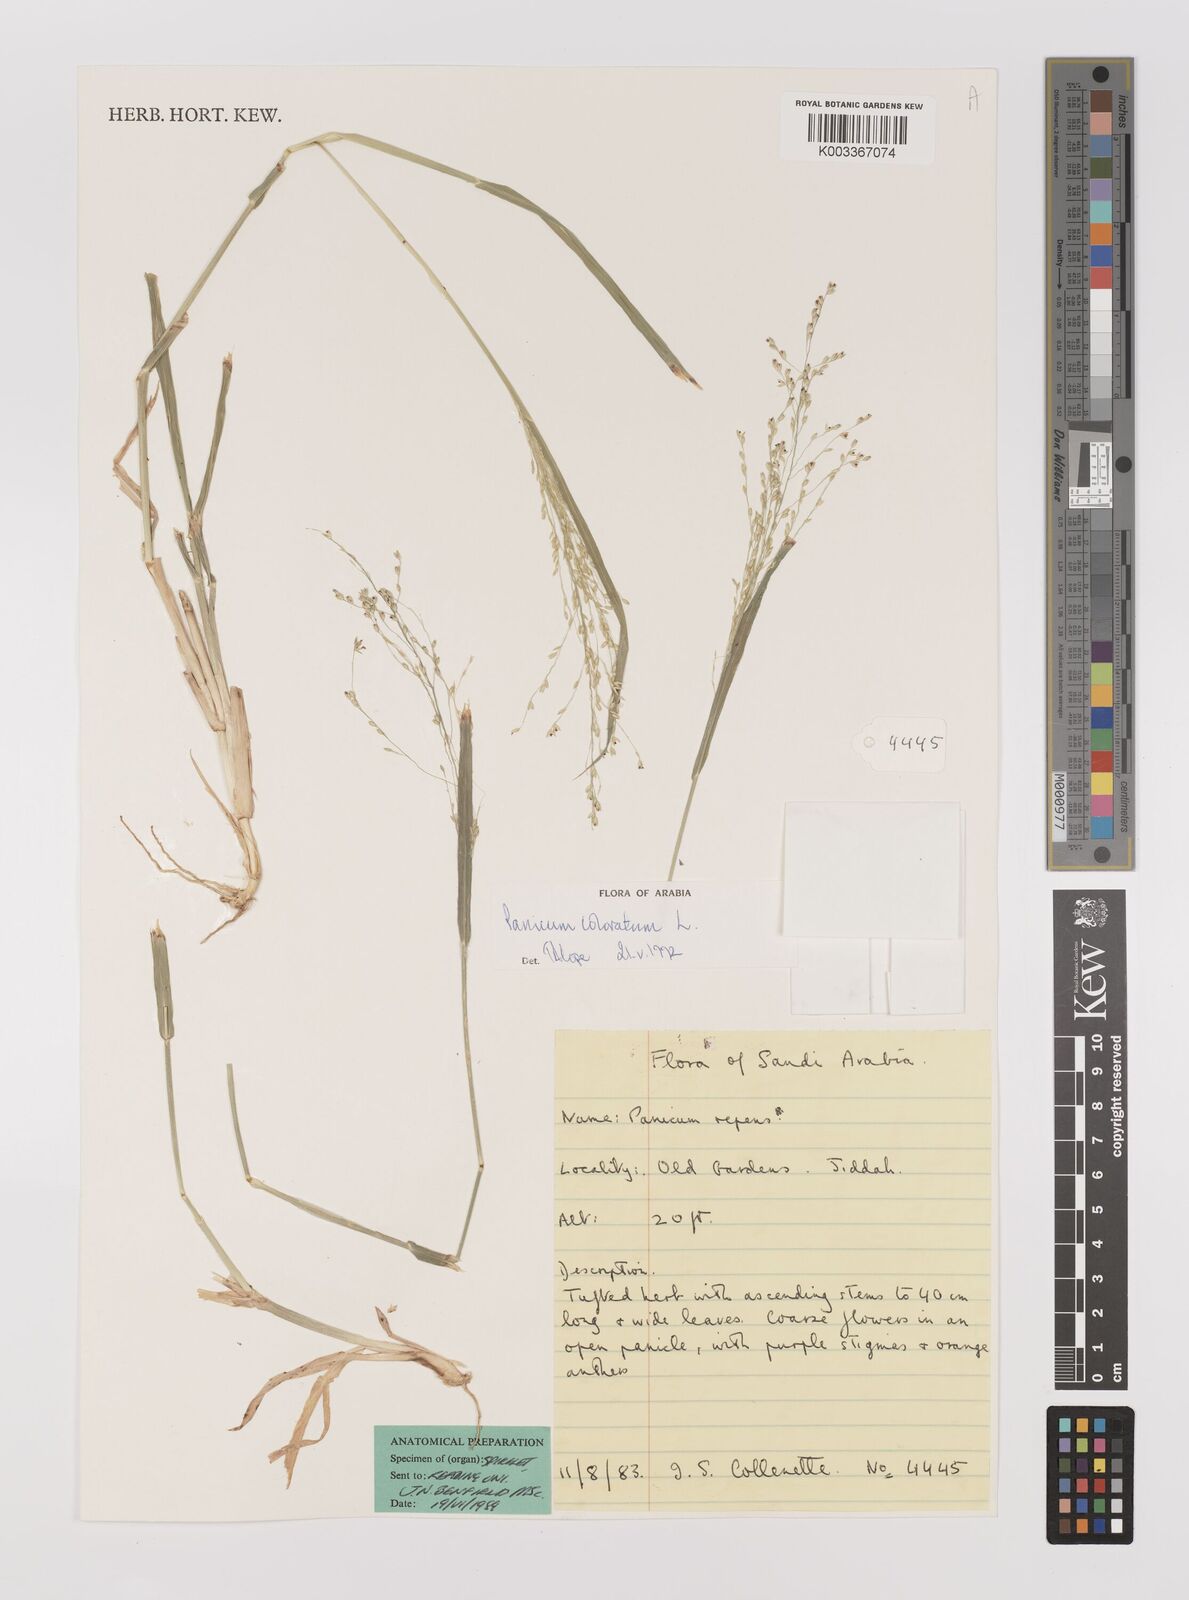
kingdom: Plantae
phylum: Tracheophyta
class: Liliopsida
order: Poales
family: Poaceae
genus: Panicum
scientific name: Panicum coloratum
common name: Kleingrass
